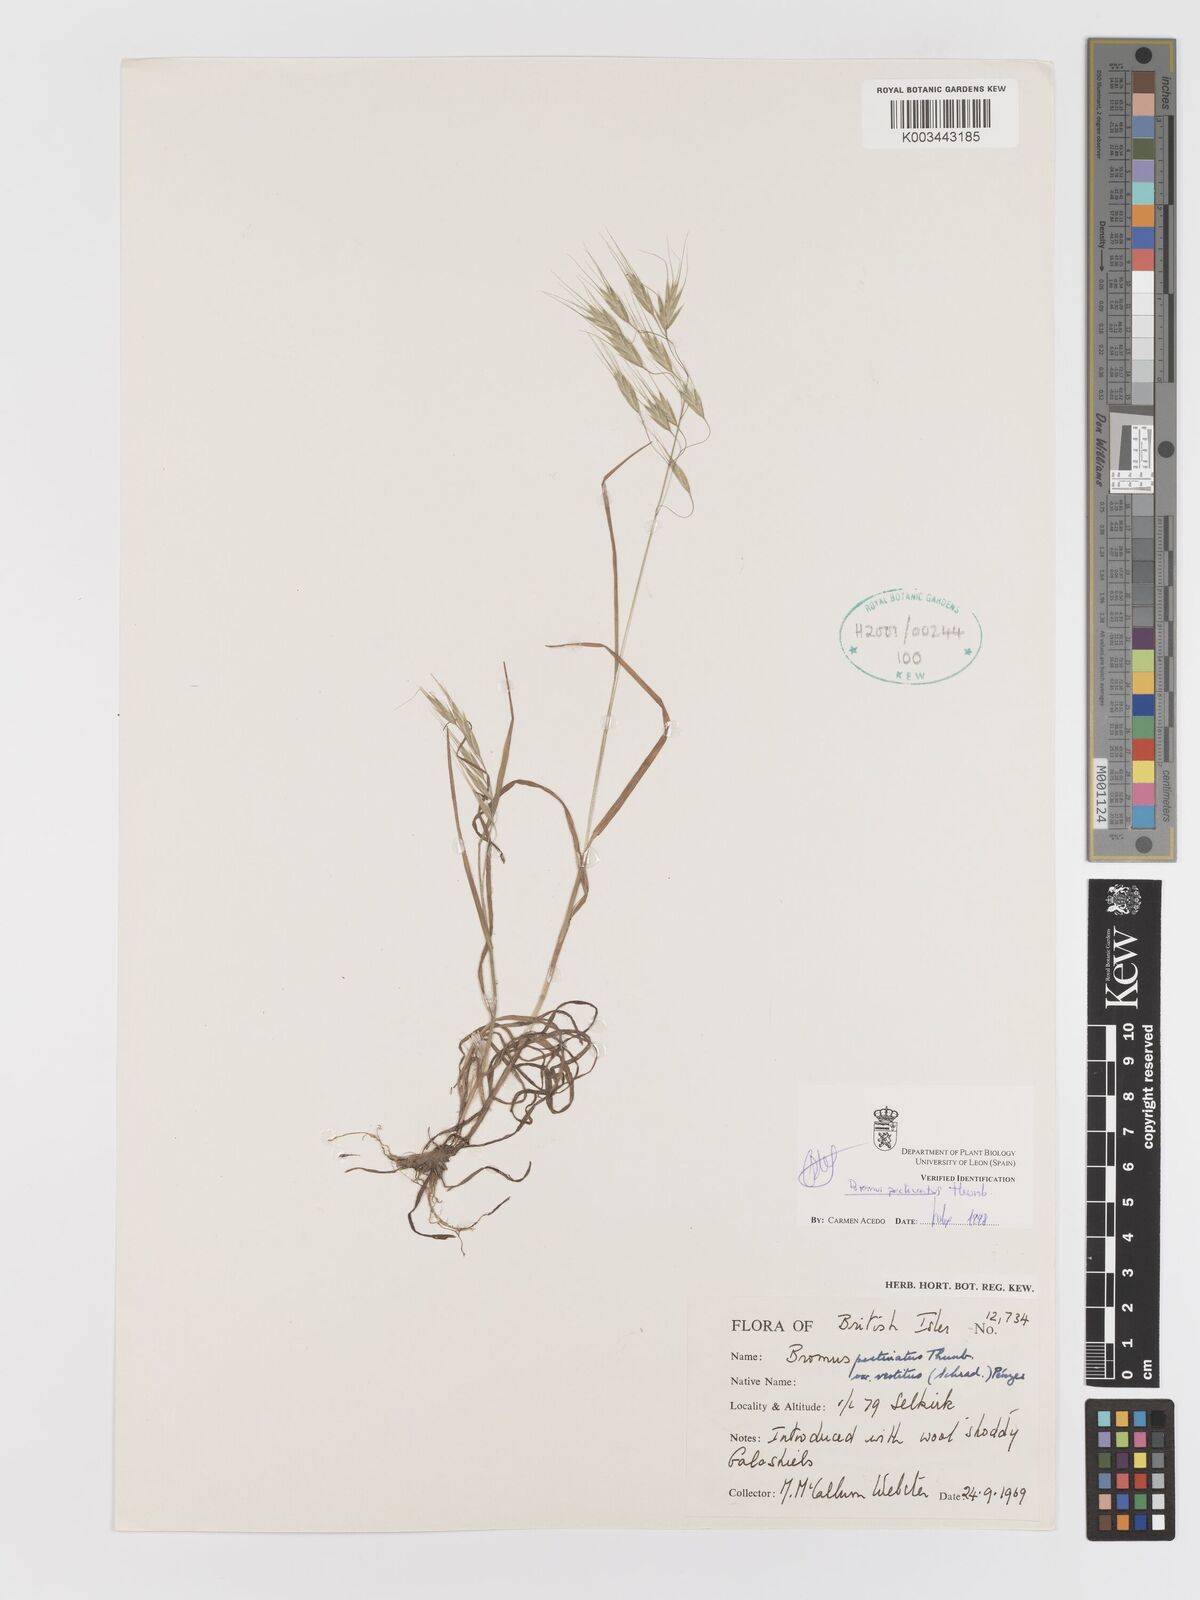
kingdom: Plantae
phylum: Tracheophyta
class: Liliopsida
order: Poales
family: Poaceae
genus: Bromus
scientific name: Bromus pectinatus
